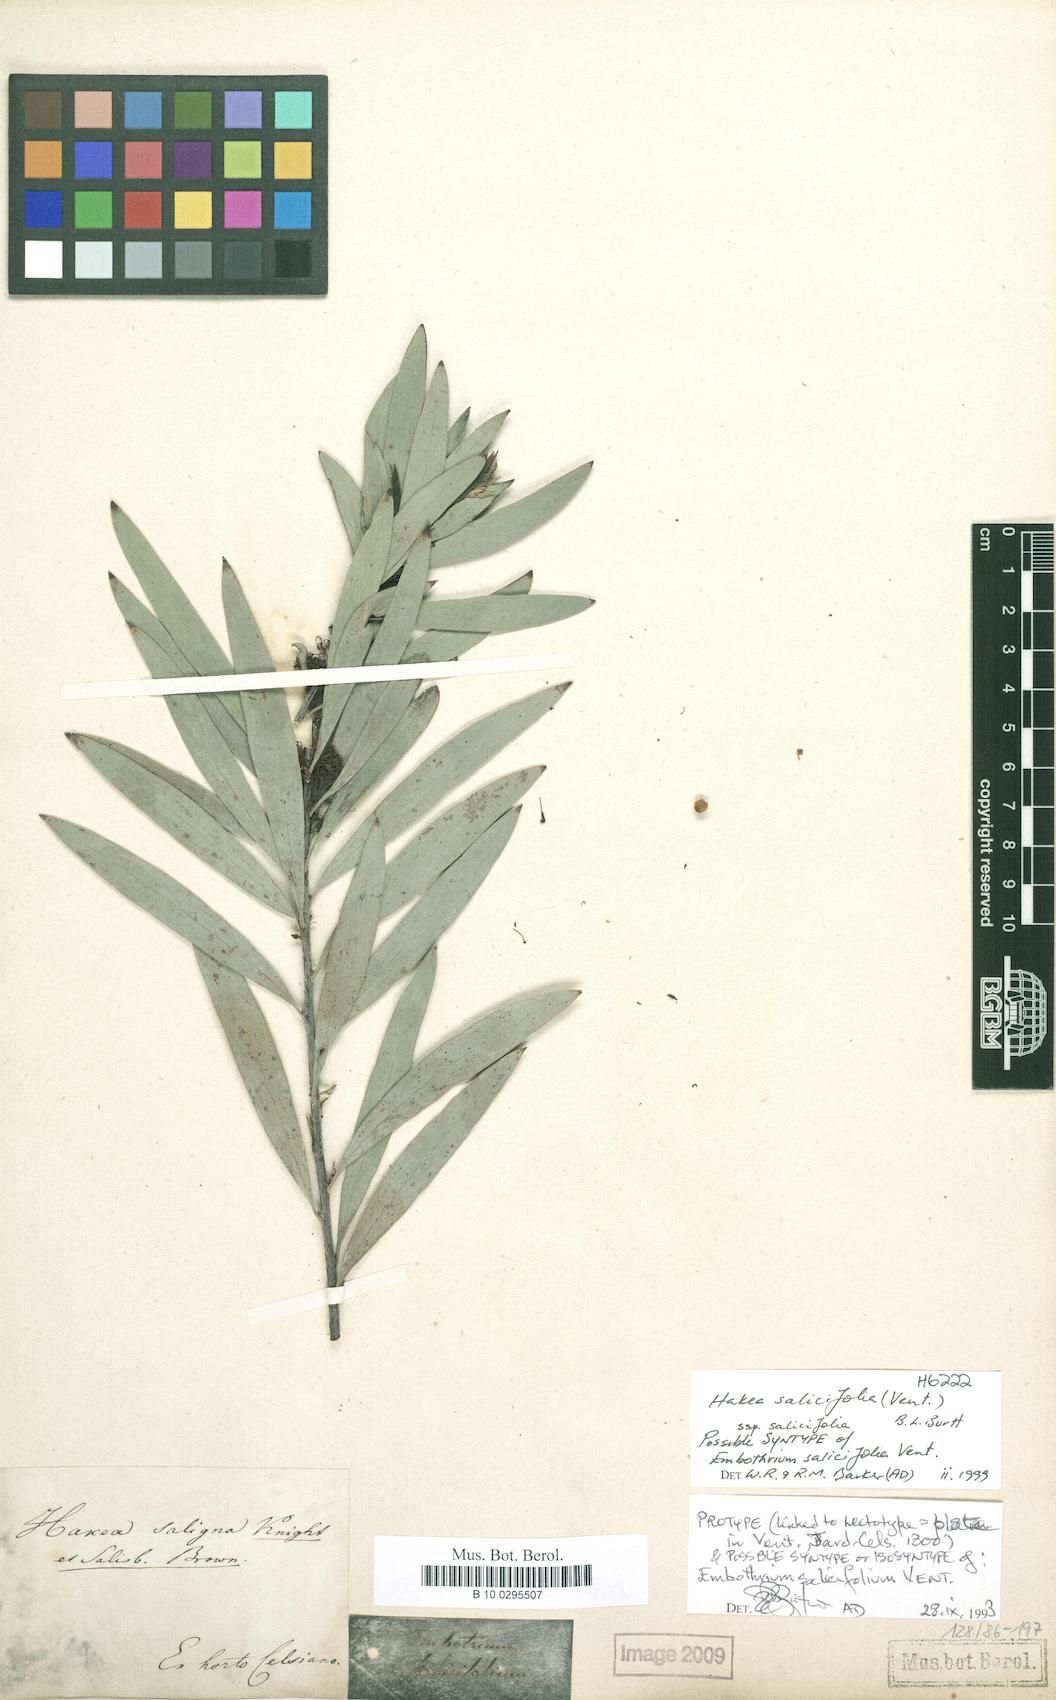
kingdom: Plantae
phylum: Tracheophyta
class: Magnoliopsida
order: Proteales
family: Proteaceae
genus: Hakea
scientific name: Hakea salicifolia
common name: Willow hakea
